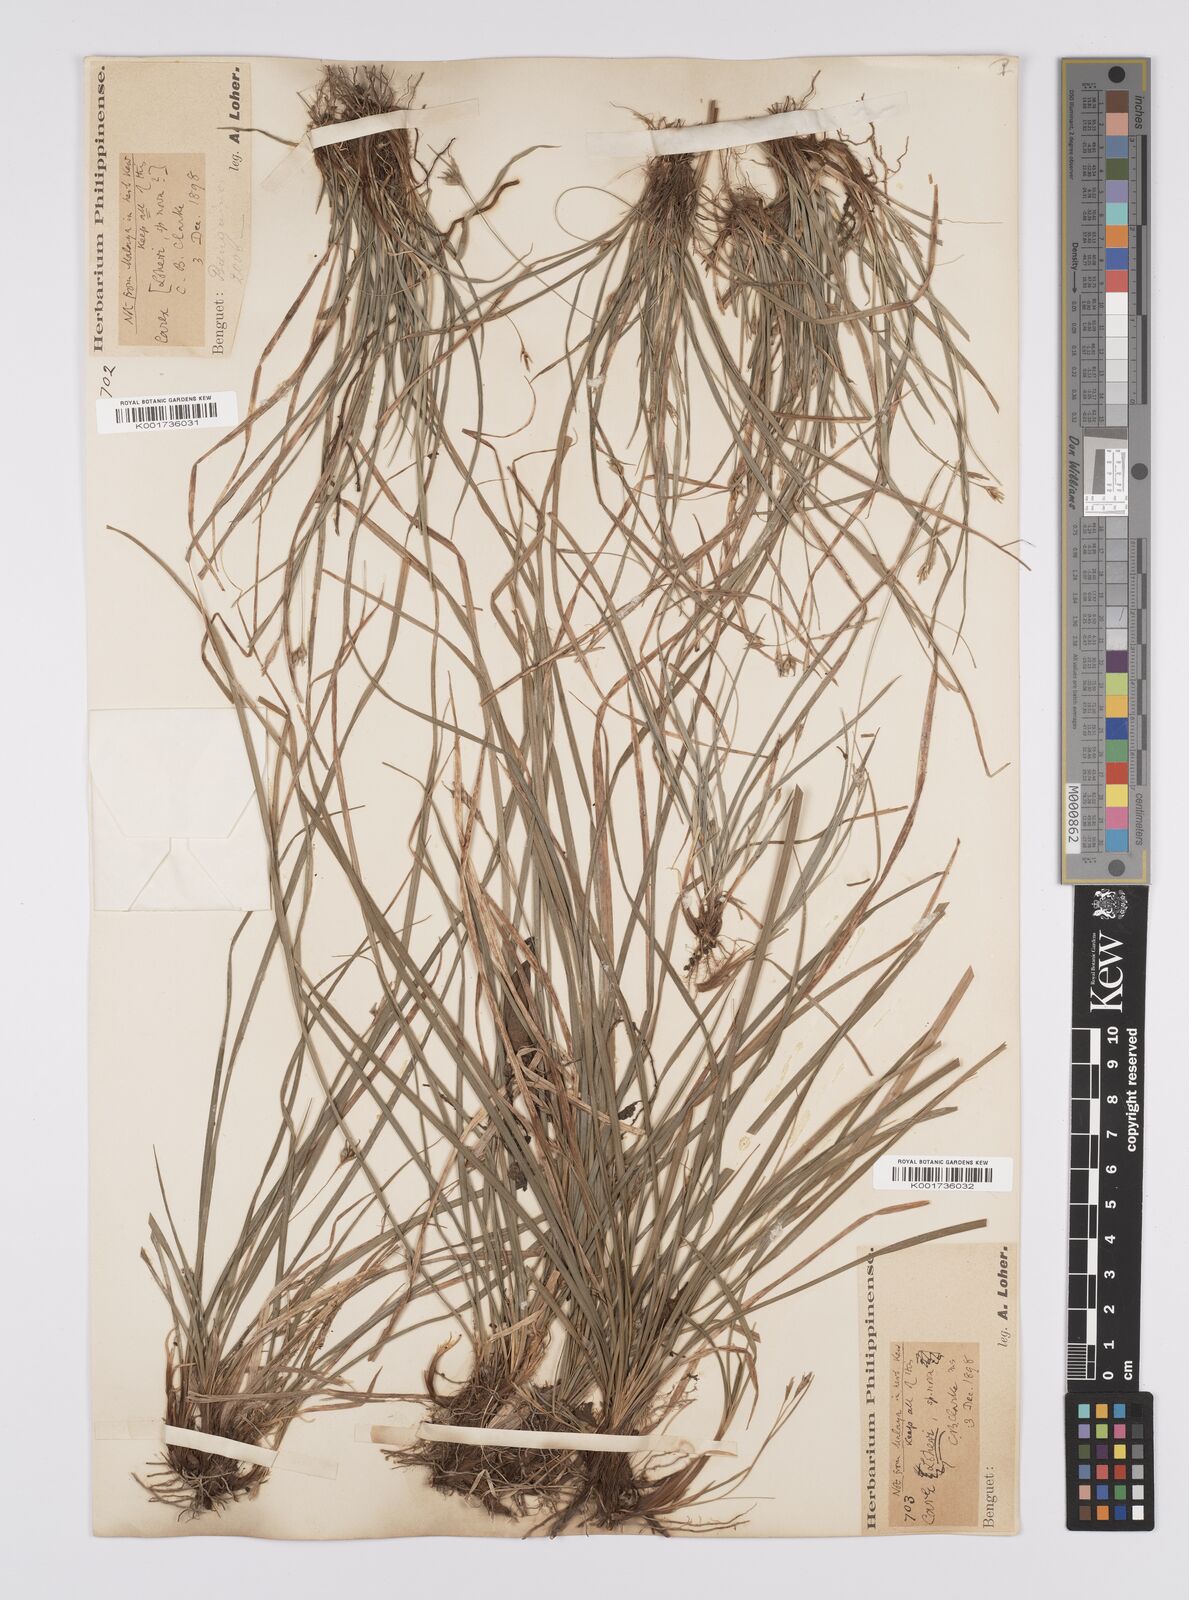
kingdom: Plantae
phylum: Tracheophyta
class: Liliopsida
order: Poales
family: Cyperaceae
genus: Carex
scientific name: Carex oxyphylla
